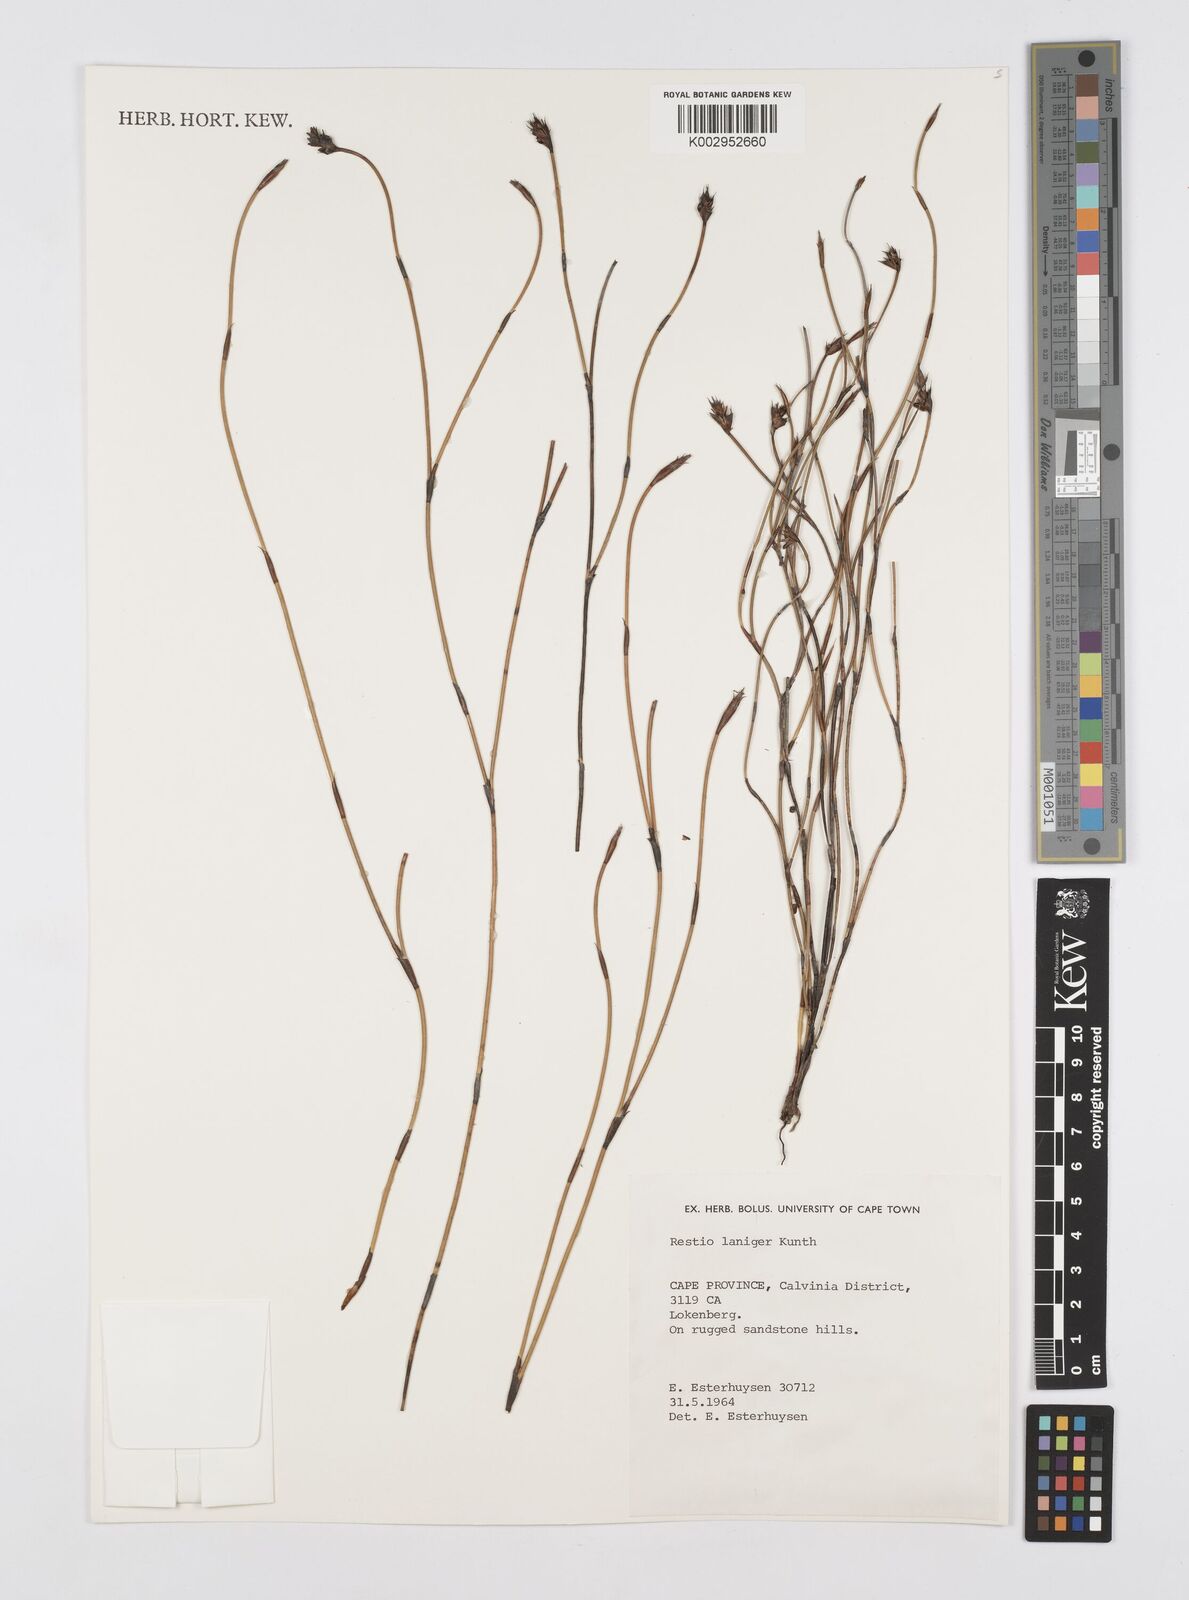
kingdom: Plantae
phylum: Tracheophyta
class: Liliopsida
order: Poales
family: Restionaceae
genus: Restio
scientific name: Restio laniger
